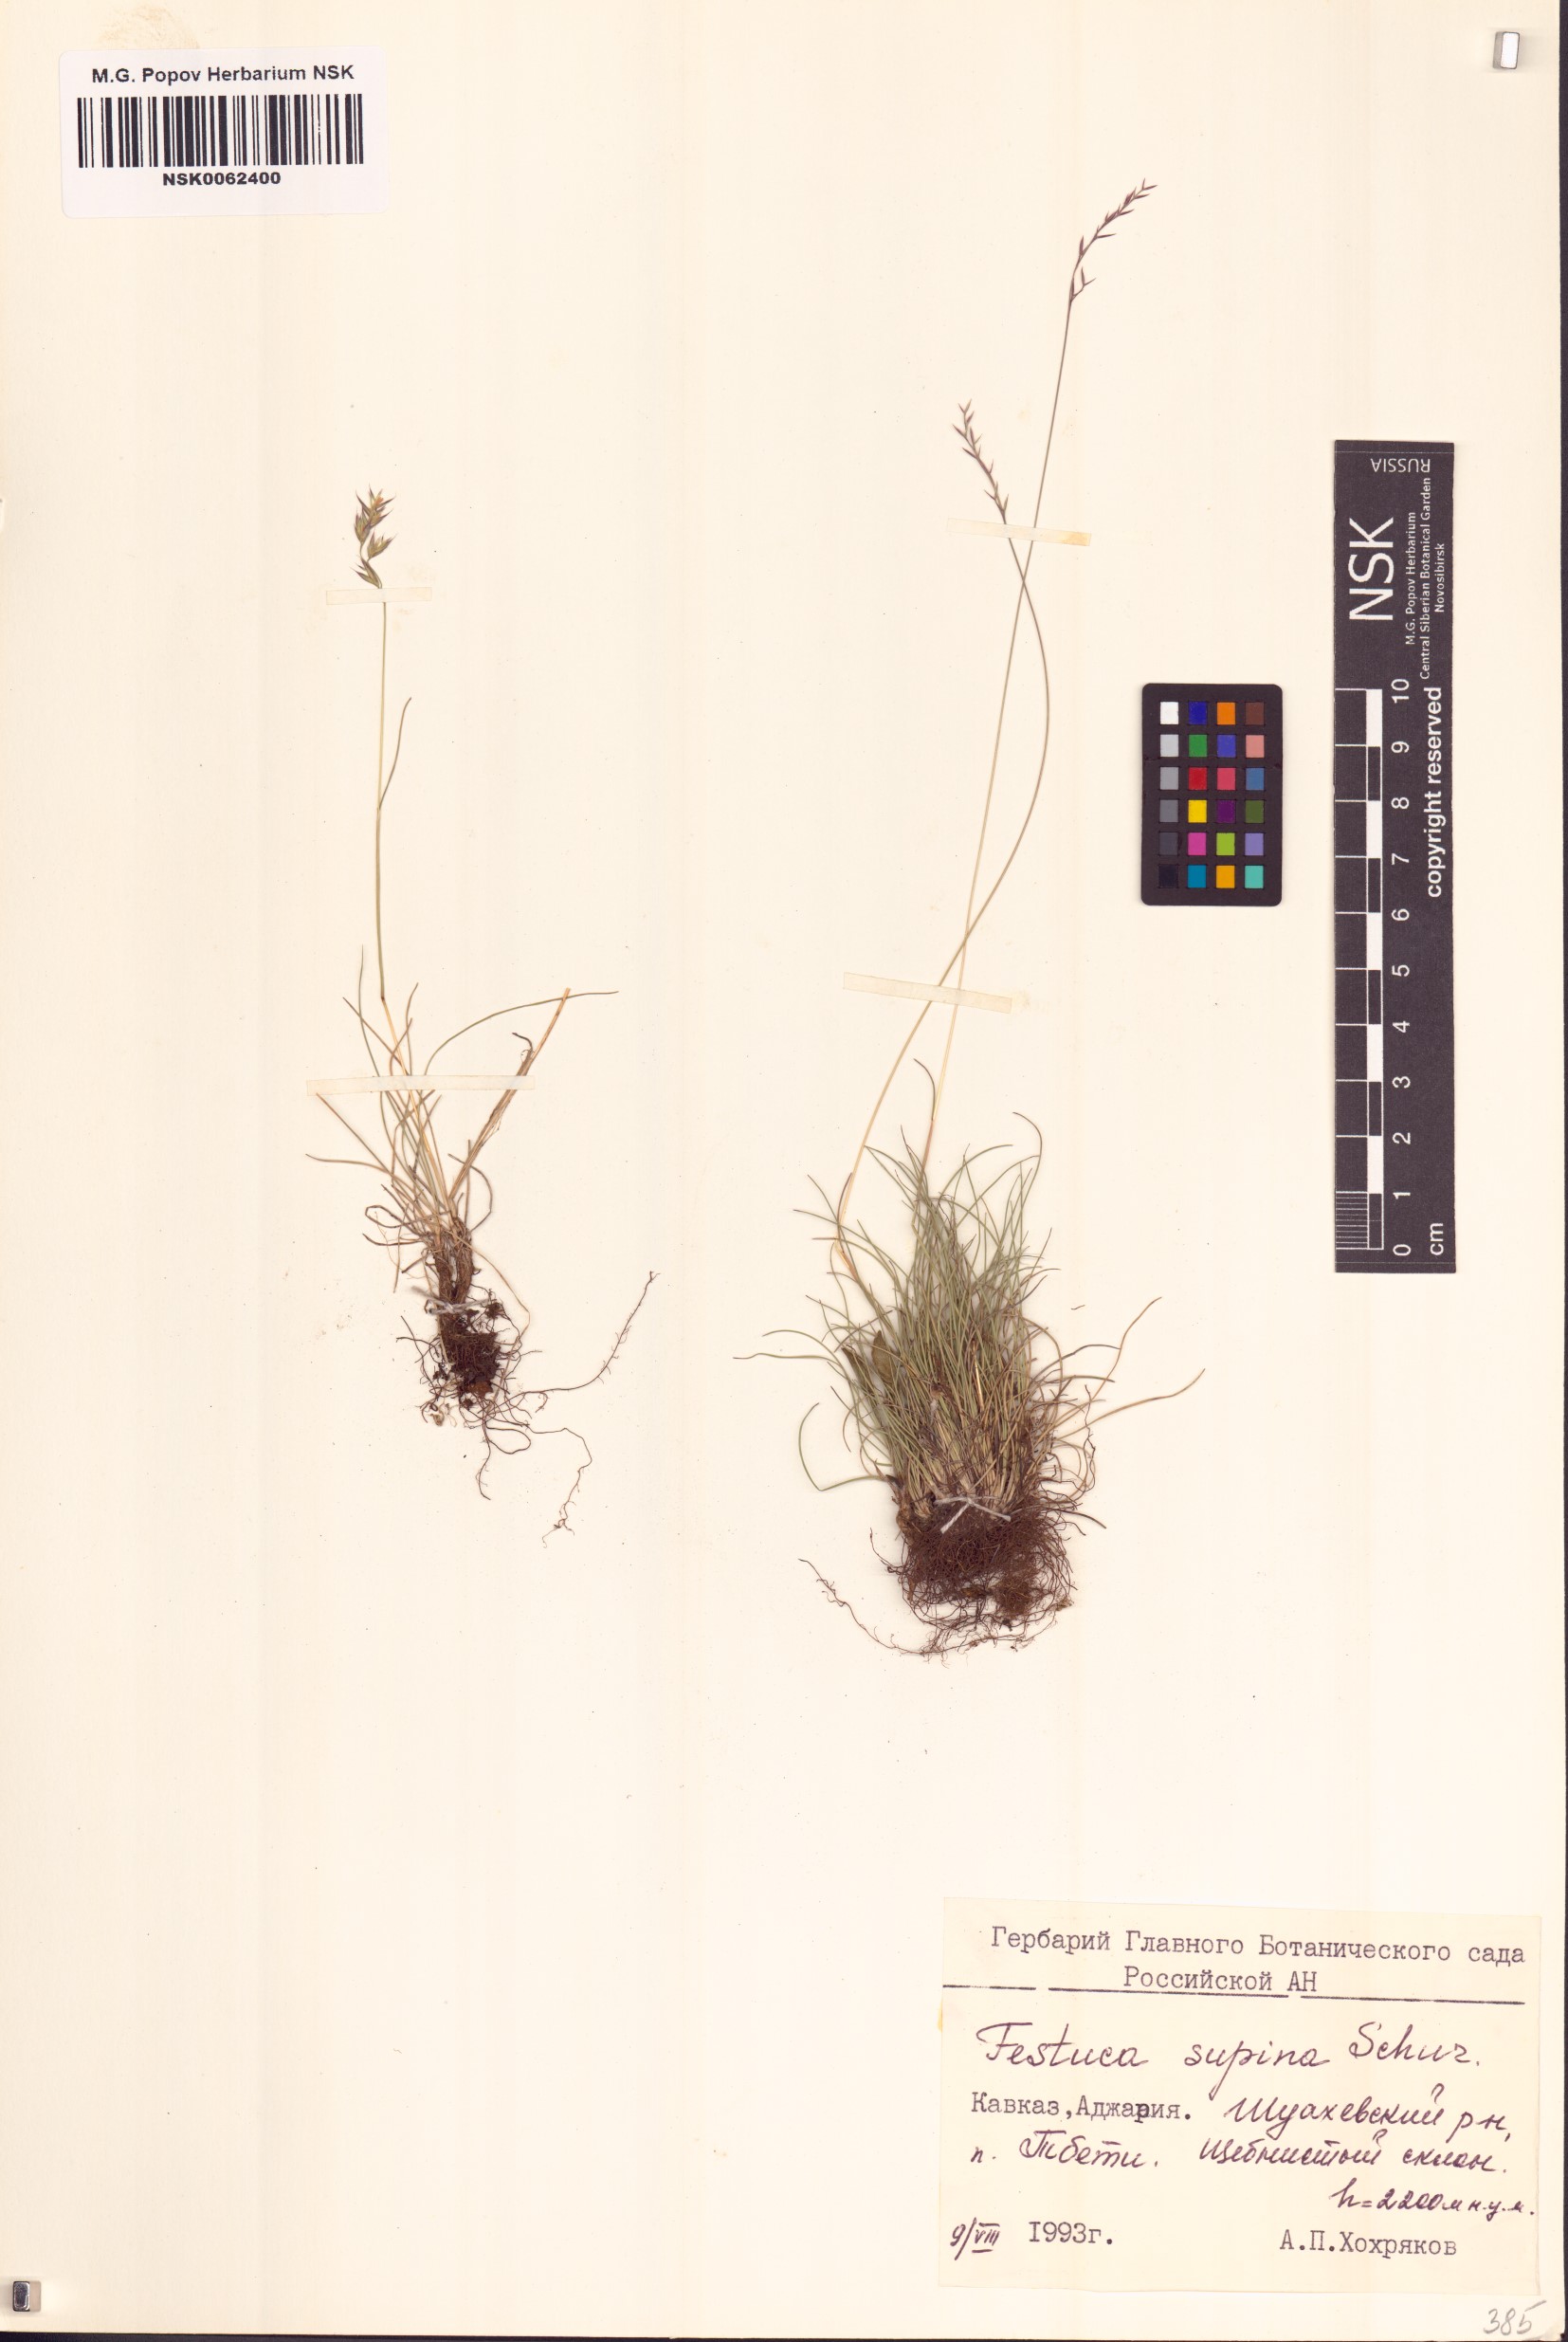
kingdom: Plantae
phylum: Tracheophyta
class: Liliopsida
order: Poales
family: Poaceae
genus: Festuca
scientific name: Festuca airoides
